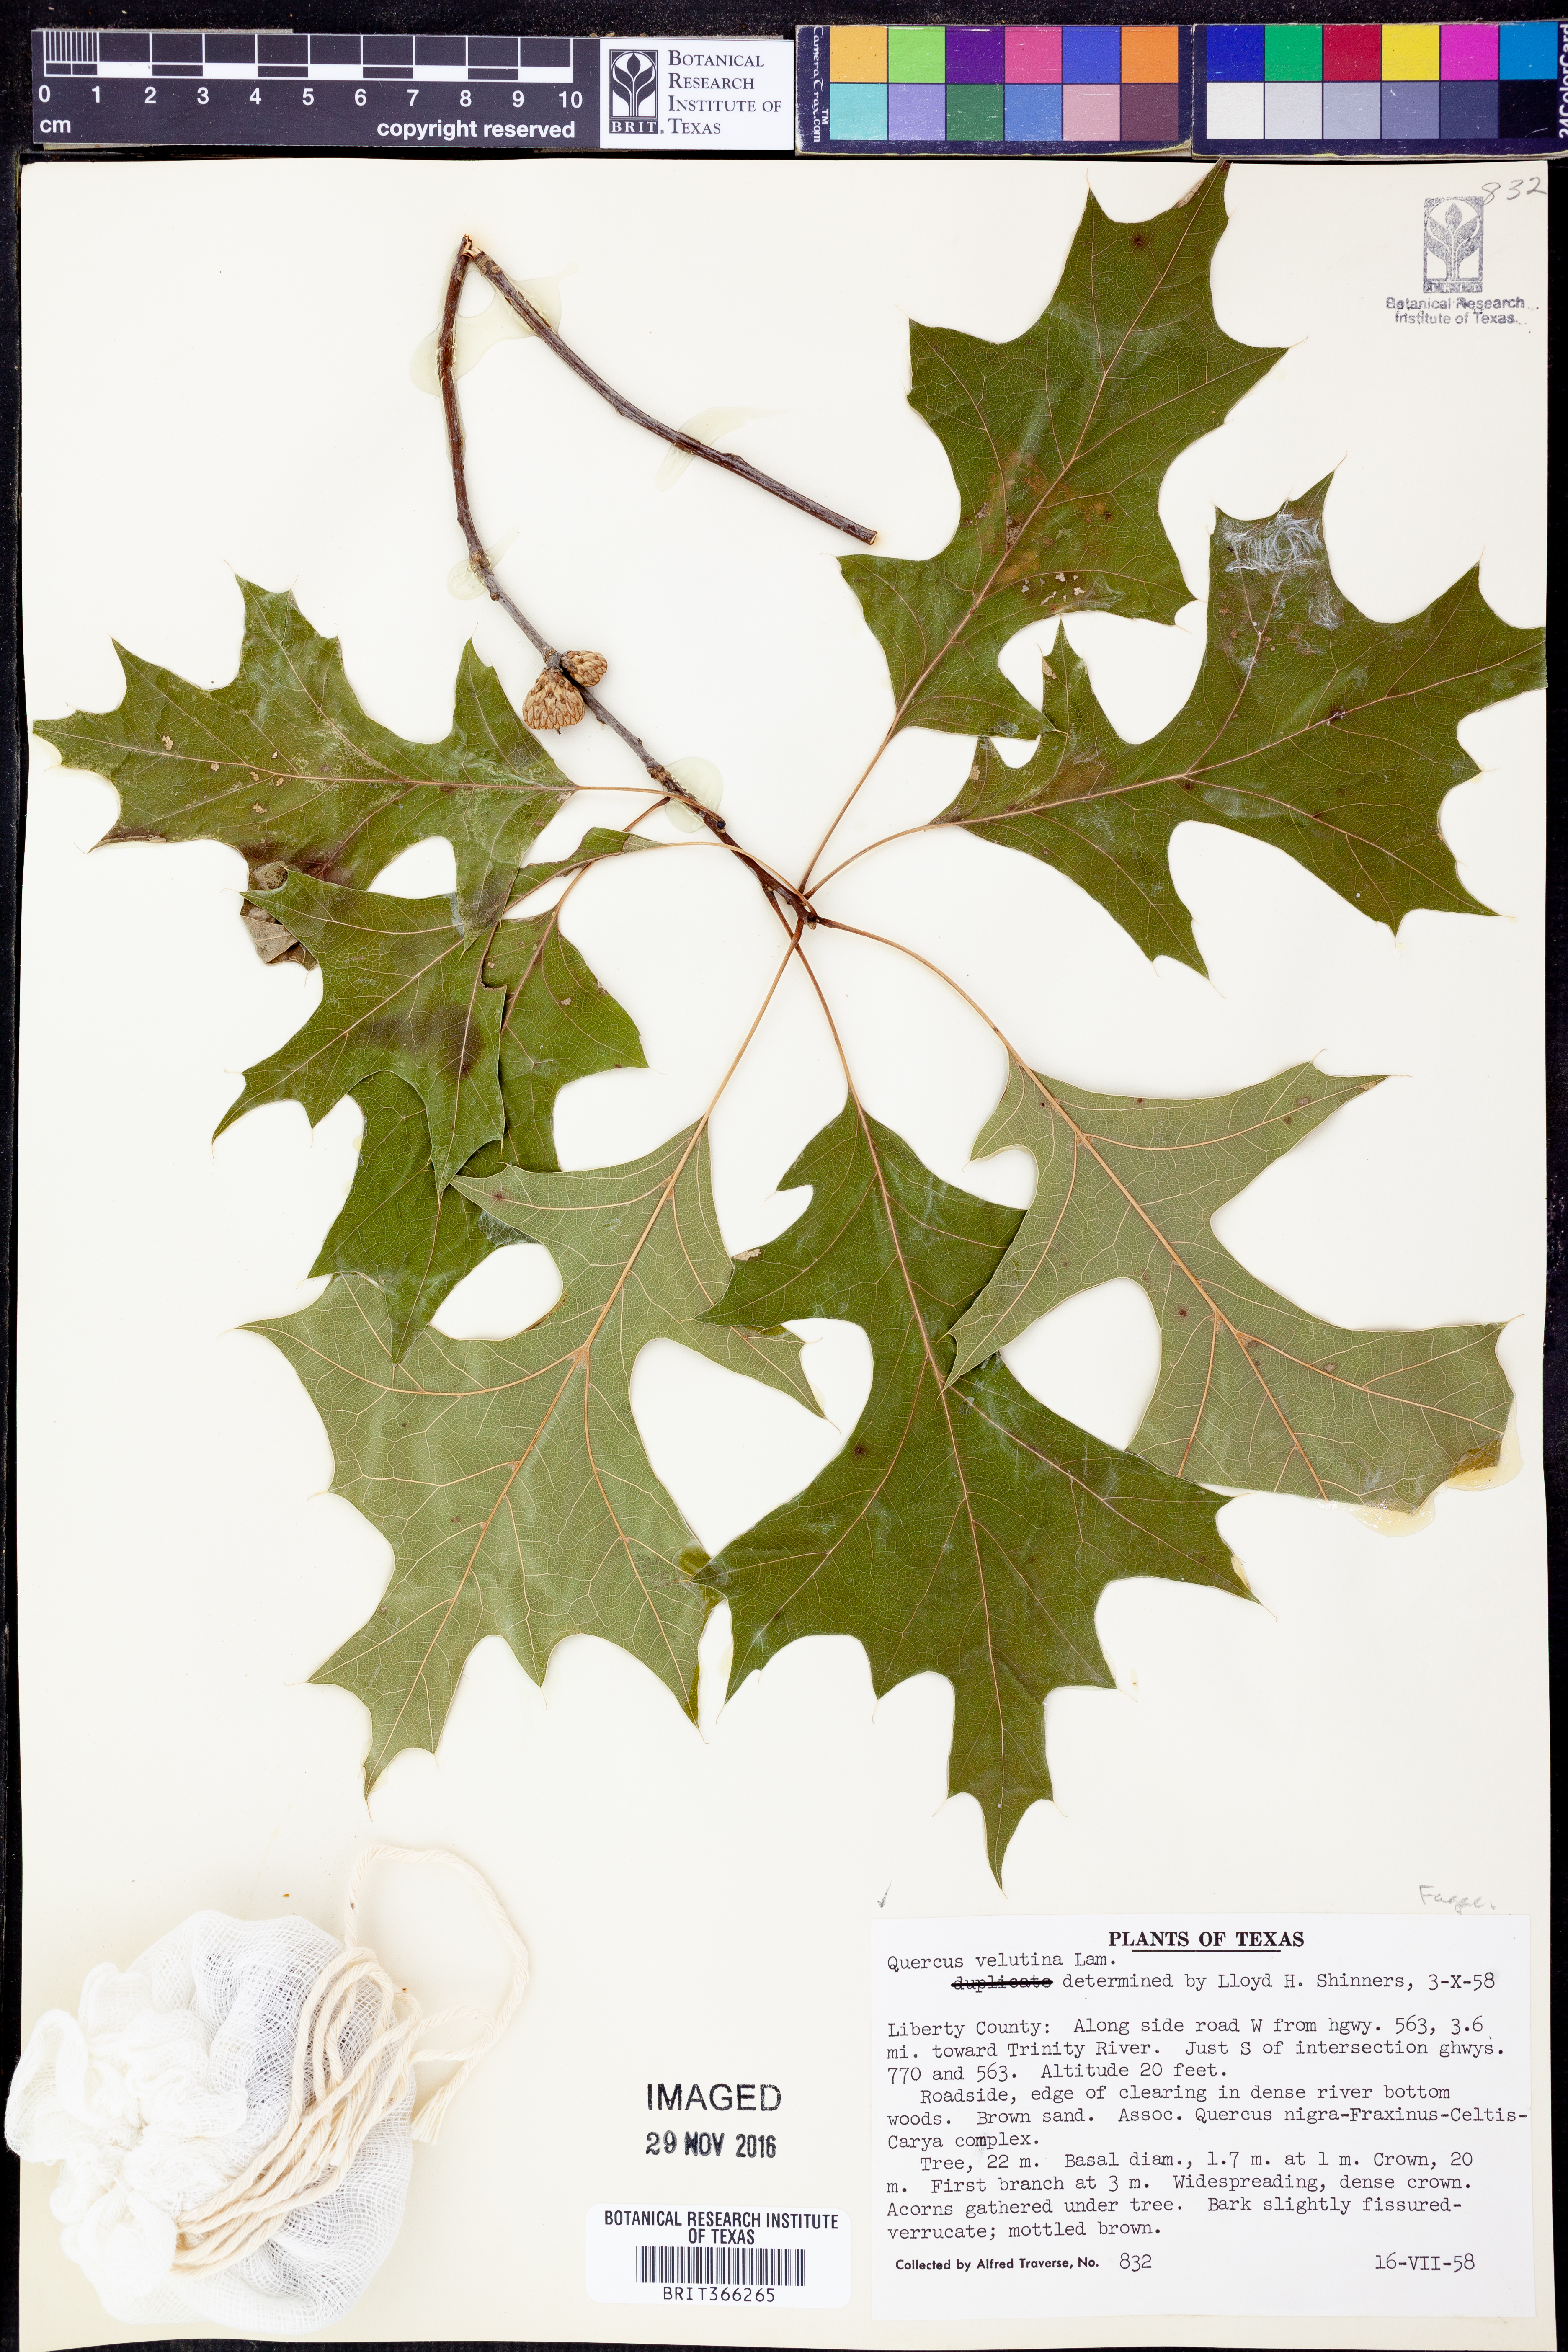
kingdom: Plantae
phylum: Tracheophyta
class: Magnoliopsida
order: Fagales
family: Fagaceae
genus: Quercus
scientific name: Quercus velutina
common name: Black oak
